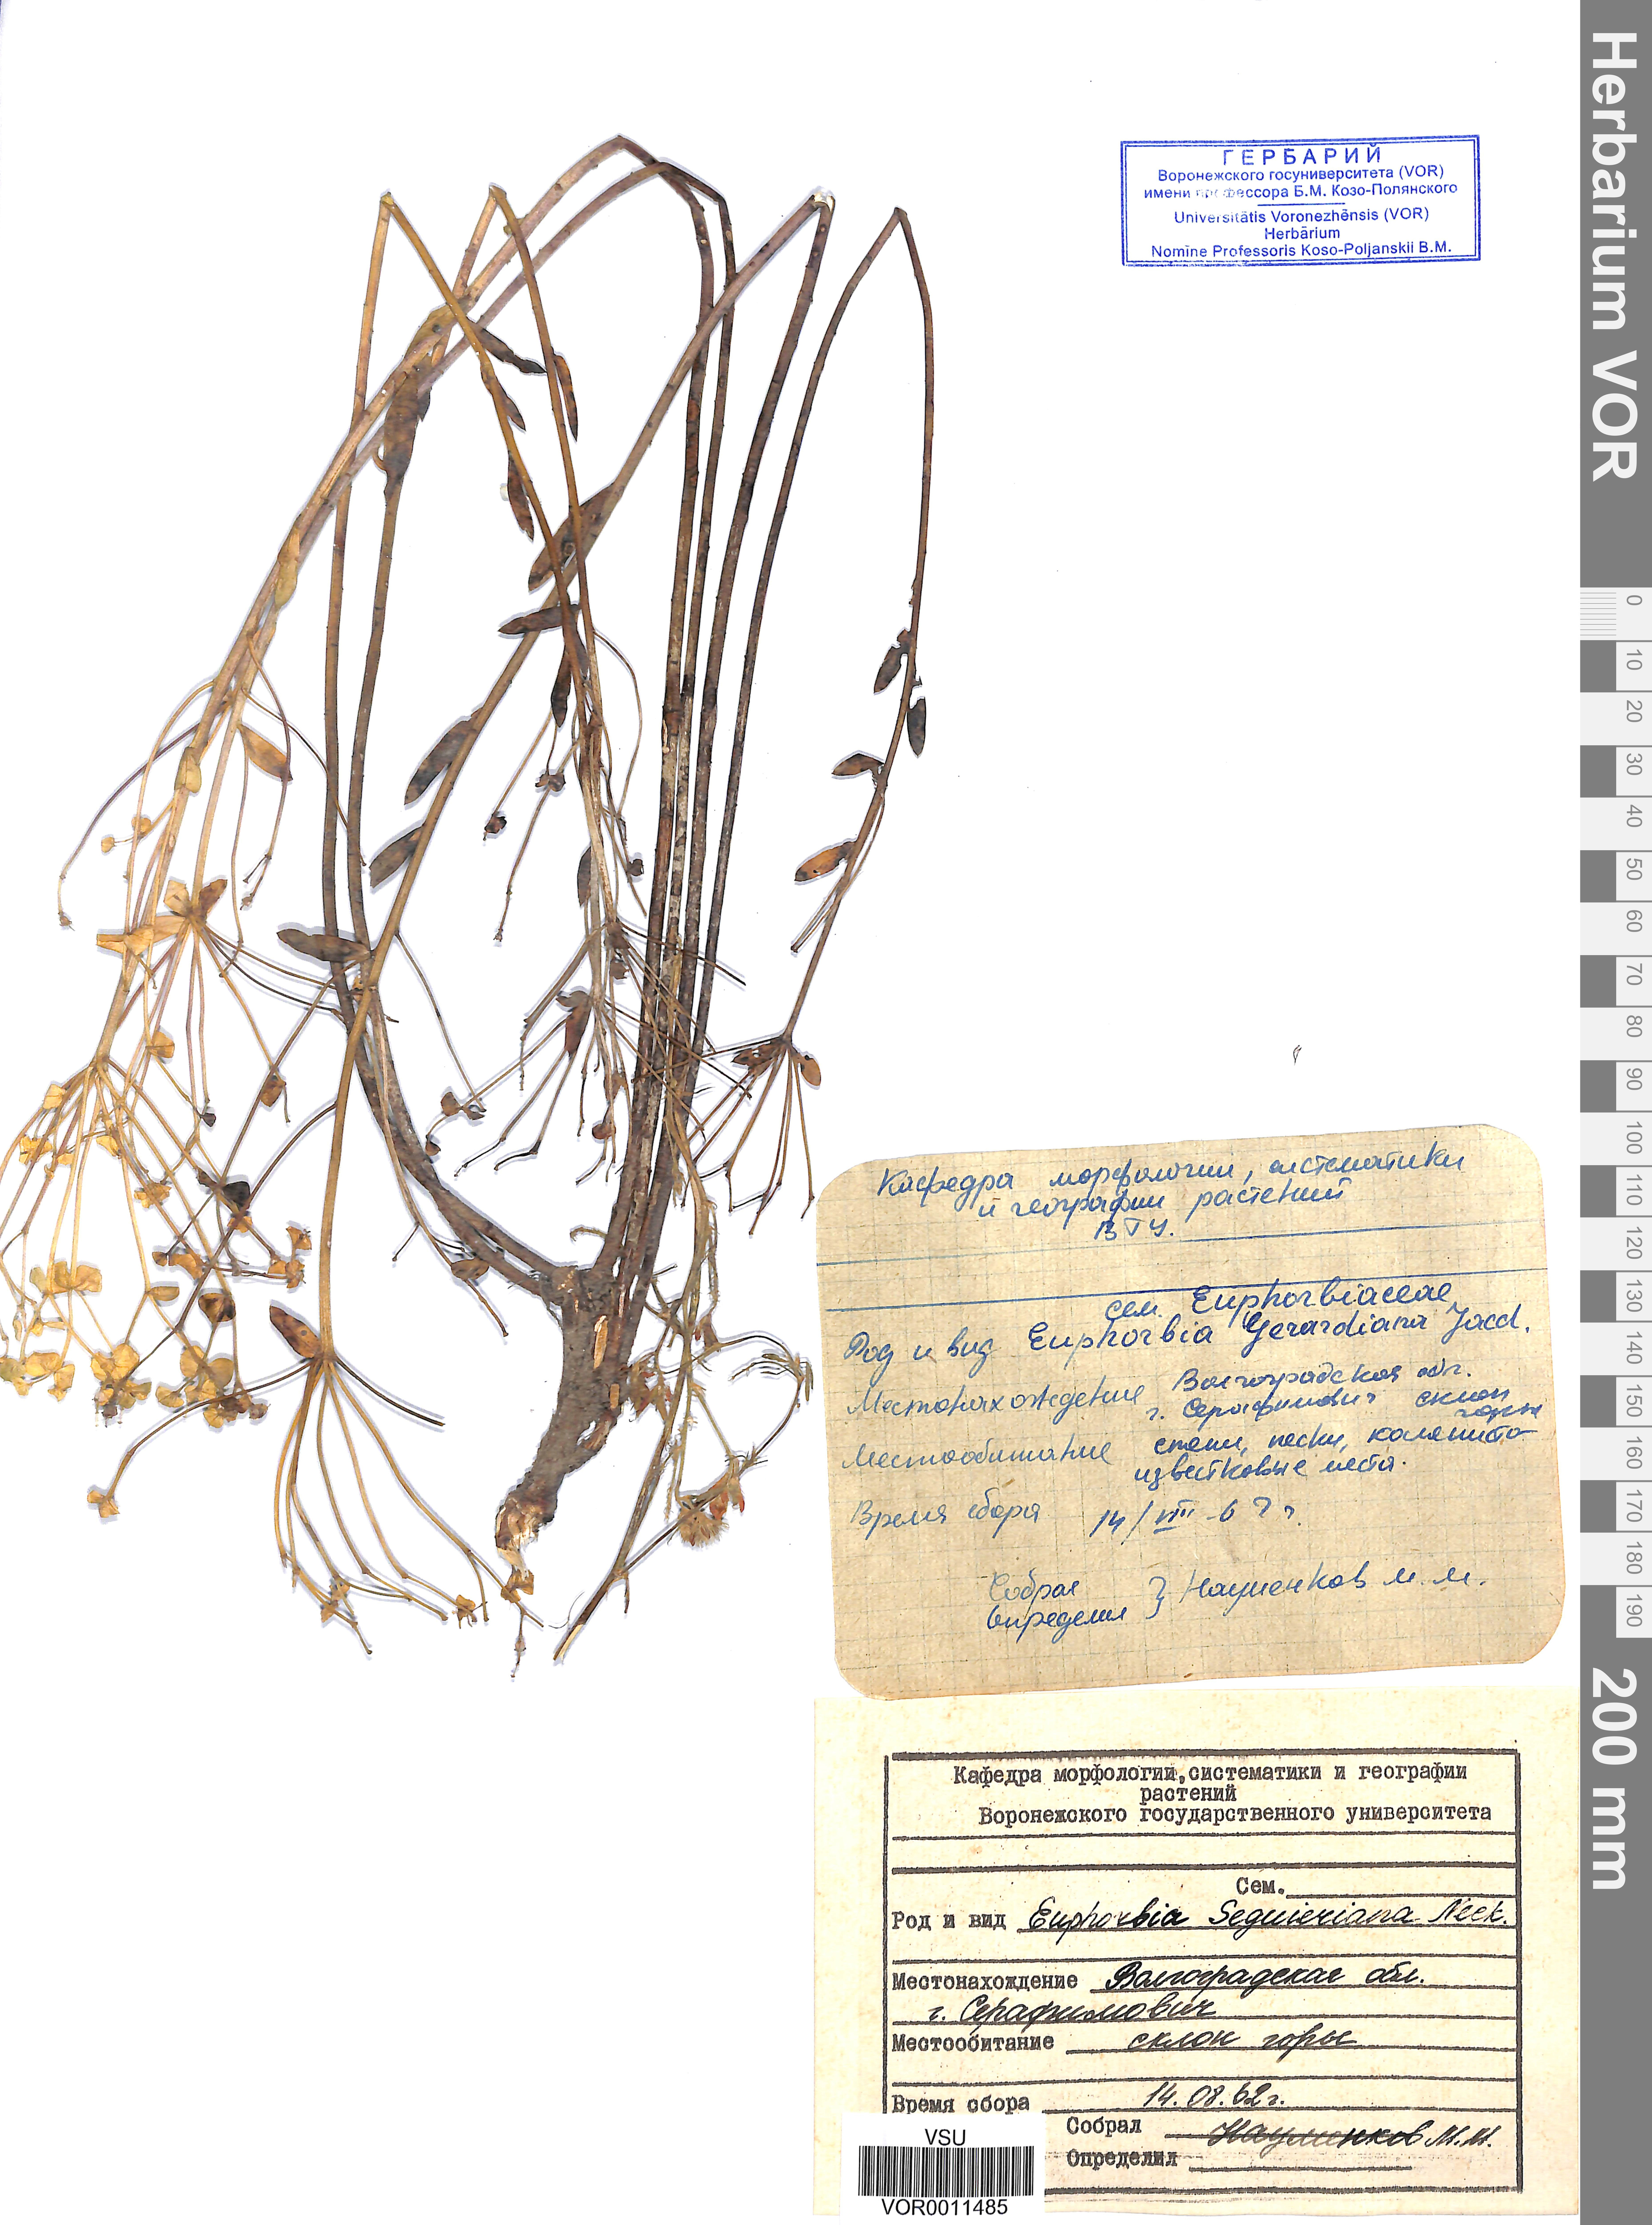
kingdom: Plantae
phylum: Tracheophyta
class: Magnoliopsida
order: Malpighiales
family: Euphorbiaceae
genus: Euphorbia
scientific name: Euphorbia seguieriana
